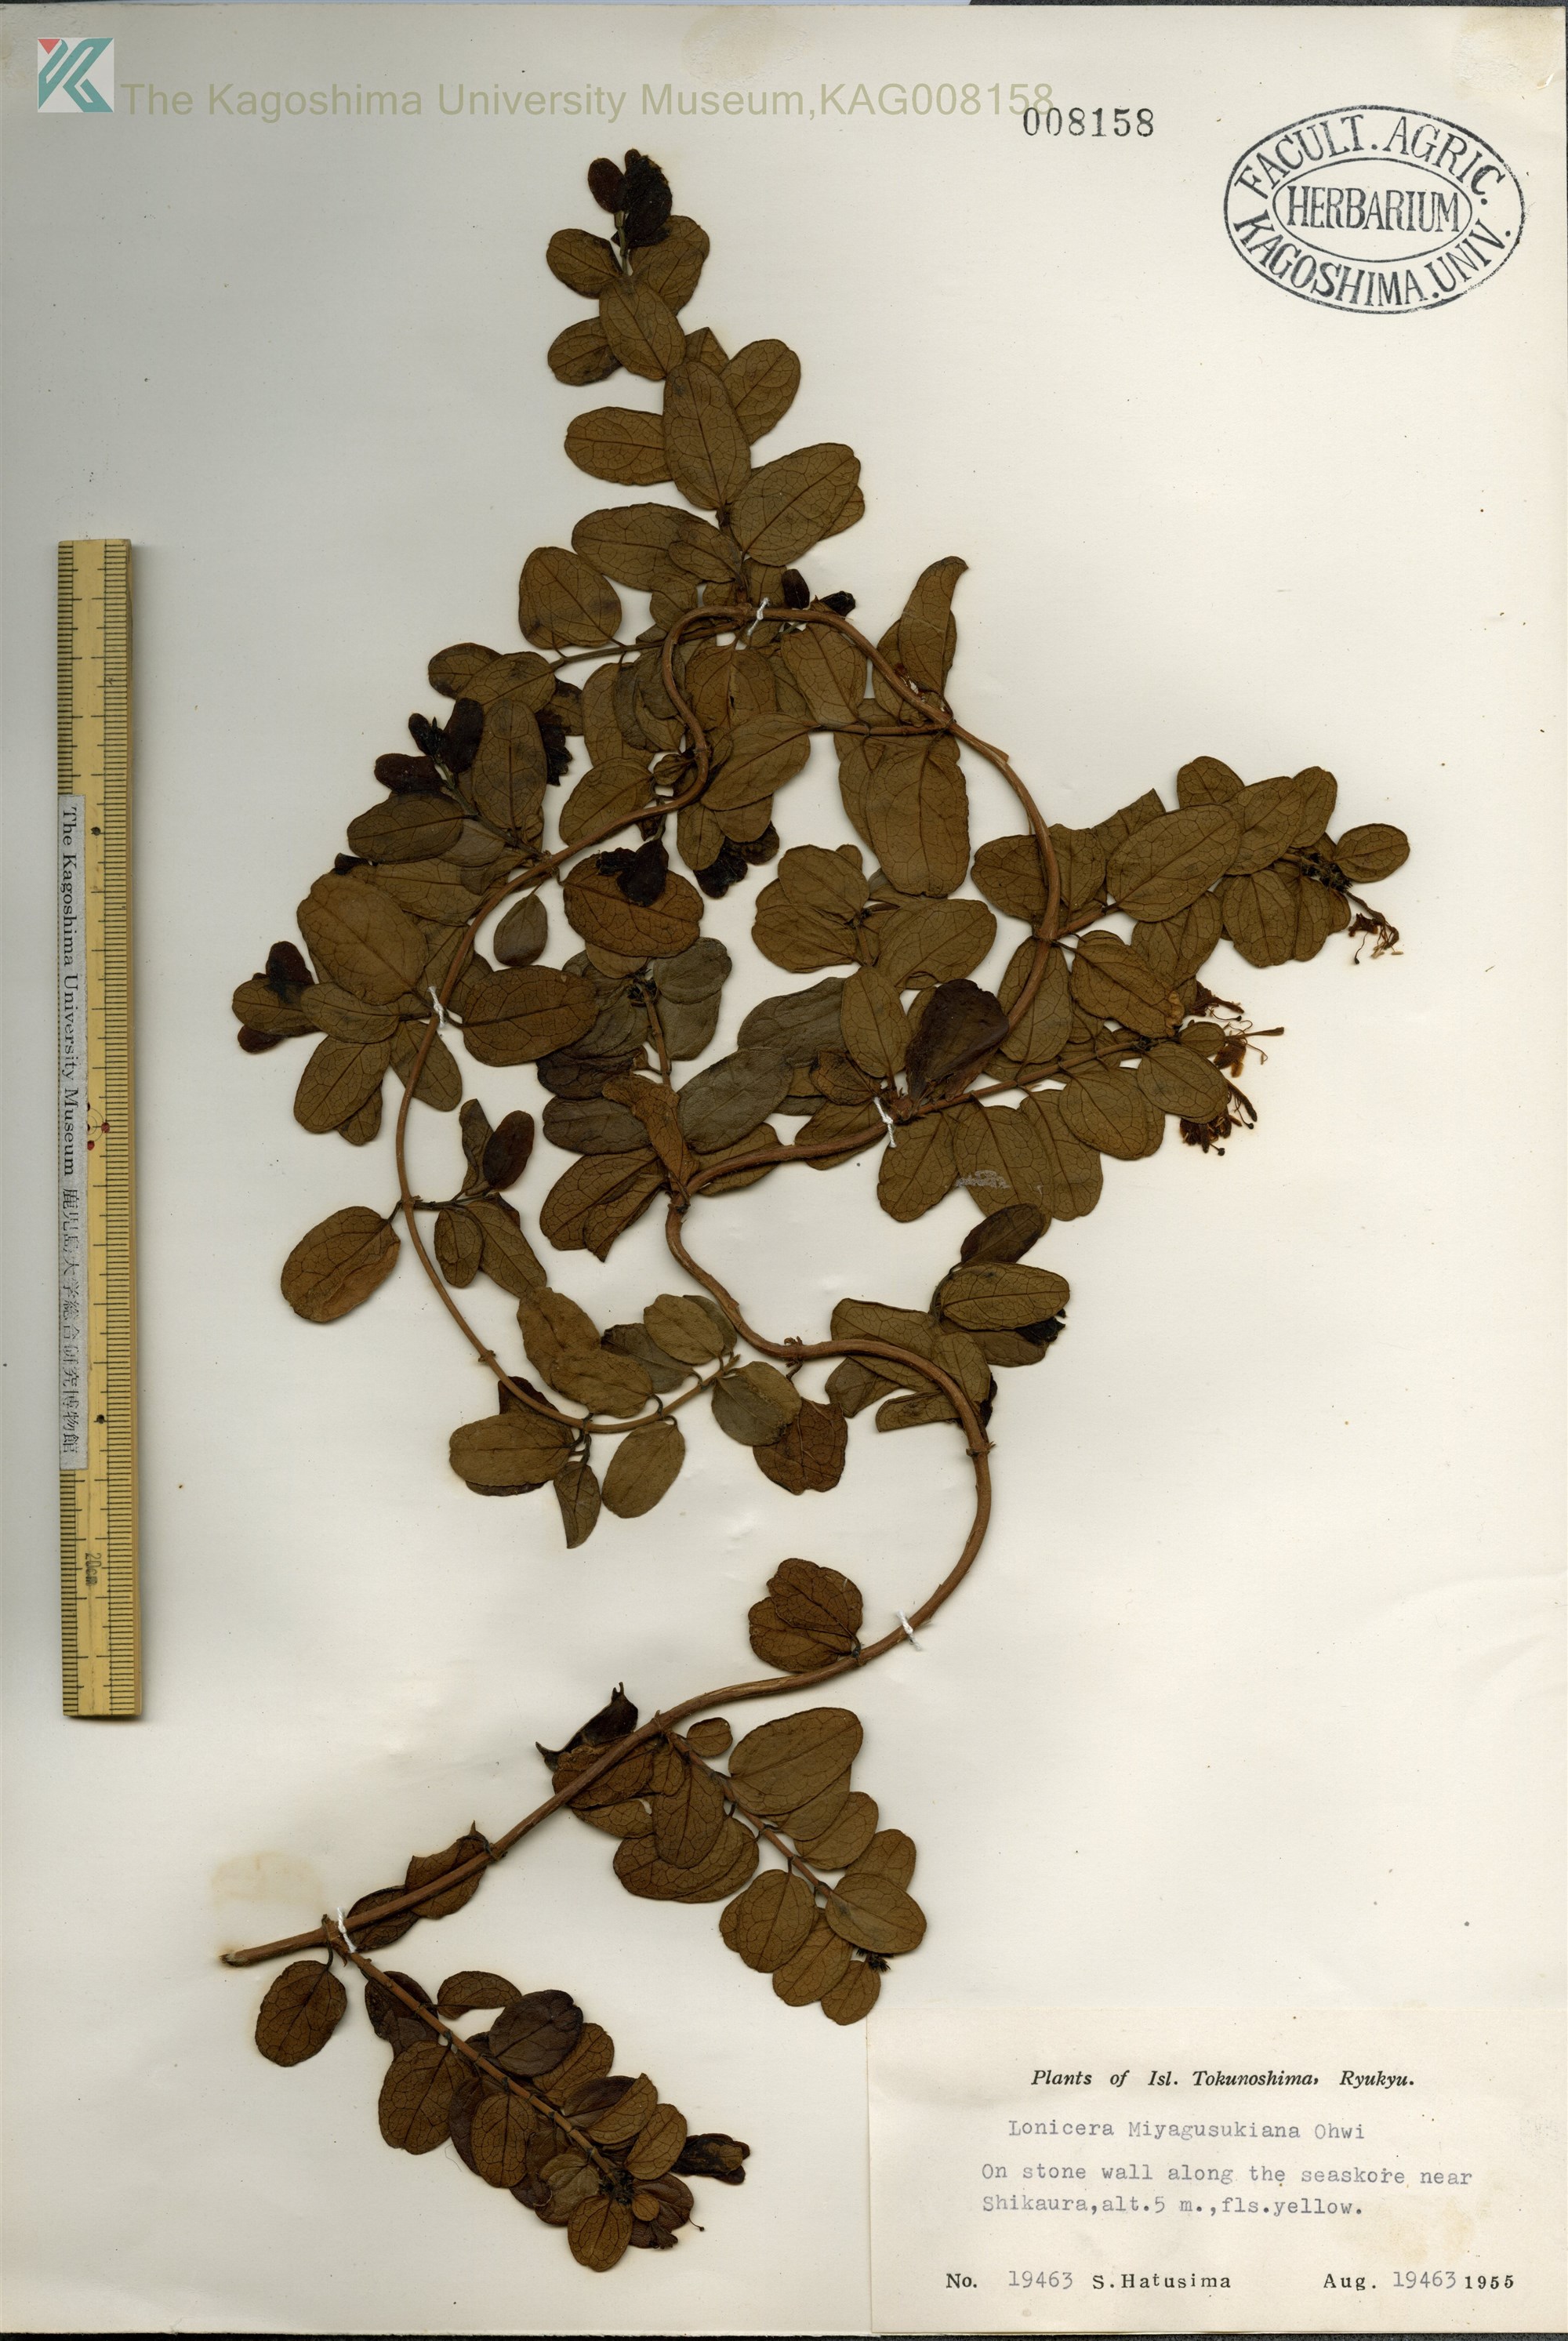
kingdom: Plantae
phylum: Tracheophyta
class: Magnoliopsida
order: Dipsacales
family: Caprifoliaceae
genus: Lonicera
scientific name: Lonicera japonica
